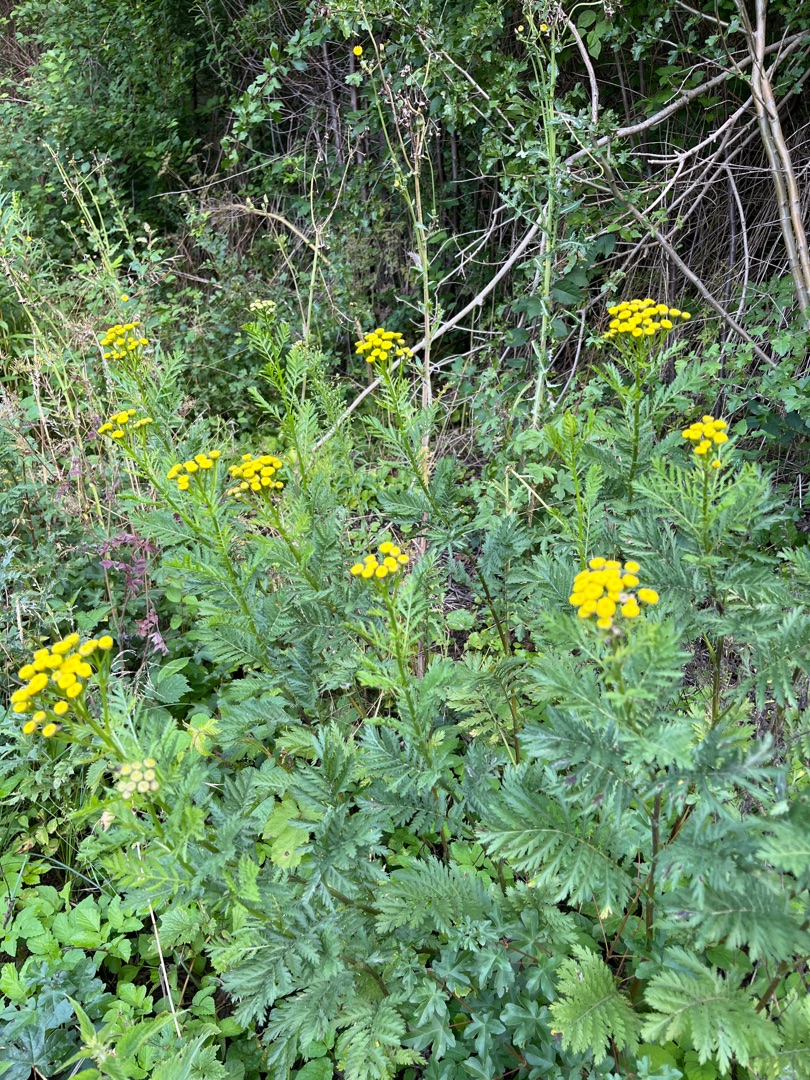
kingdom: Plantae
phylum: Tracheophyta
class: Magnoliopsida
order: Asterales
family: Asteraceae
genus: Tanacetum
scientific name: Tanacetum vulgare
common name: Rejnfan
